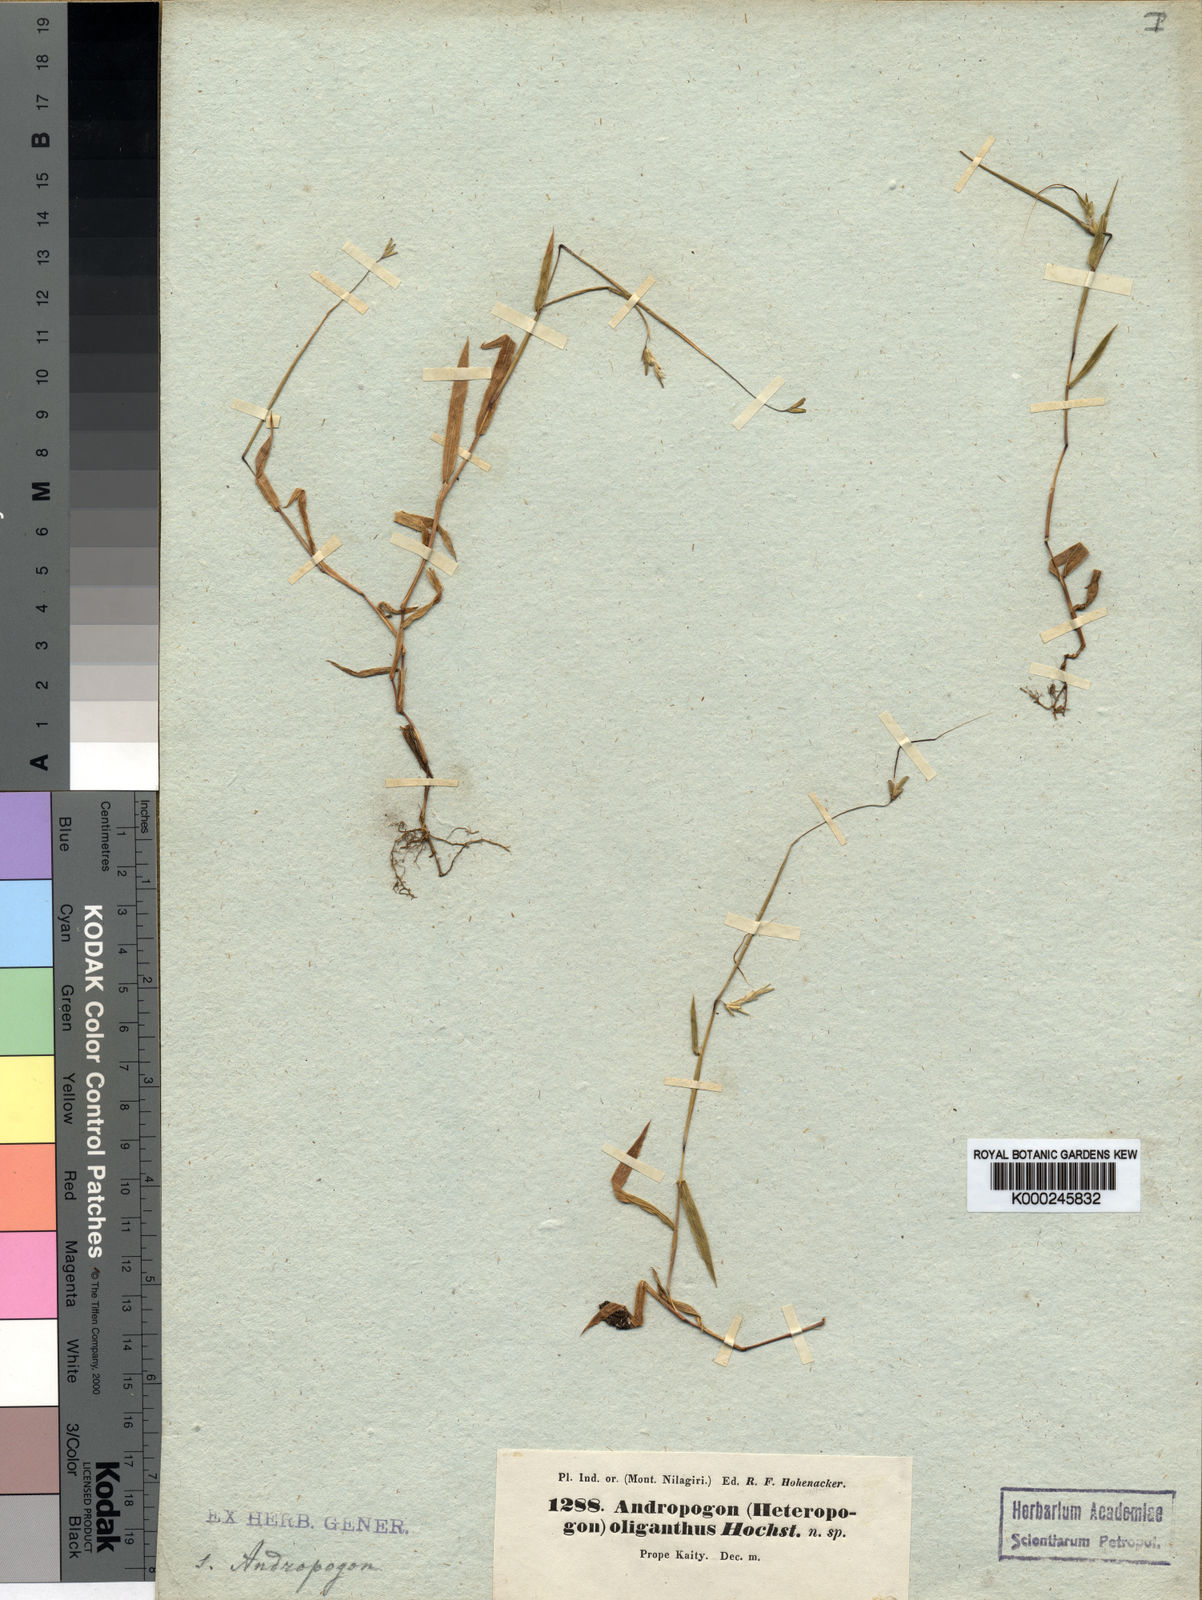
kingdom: Plantae
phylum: Tracheophyta
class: Liliopsida
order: Poales
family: Poaceae
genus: Euclasta
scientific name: Euclasta oligantha
